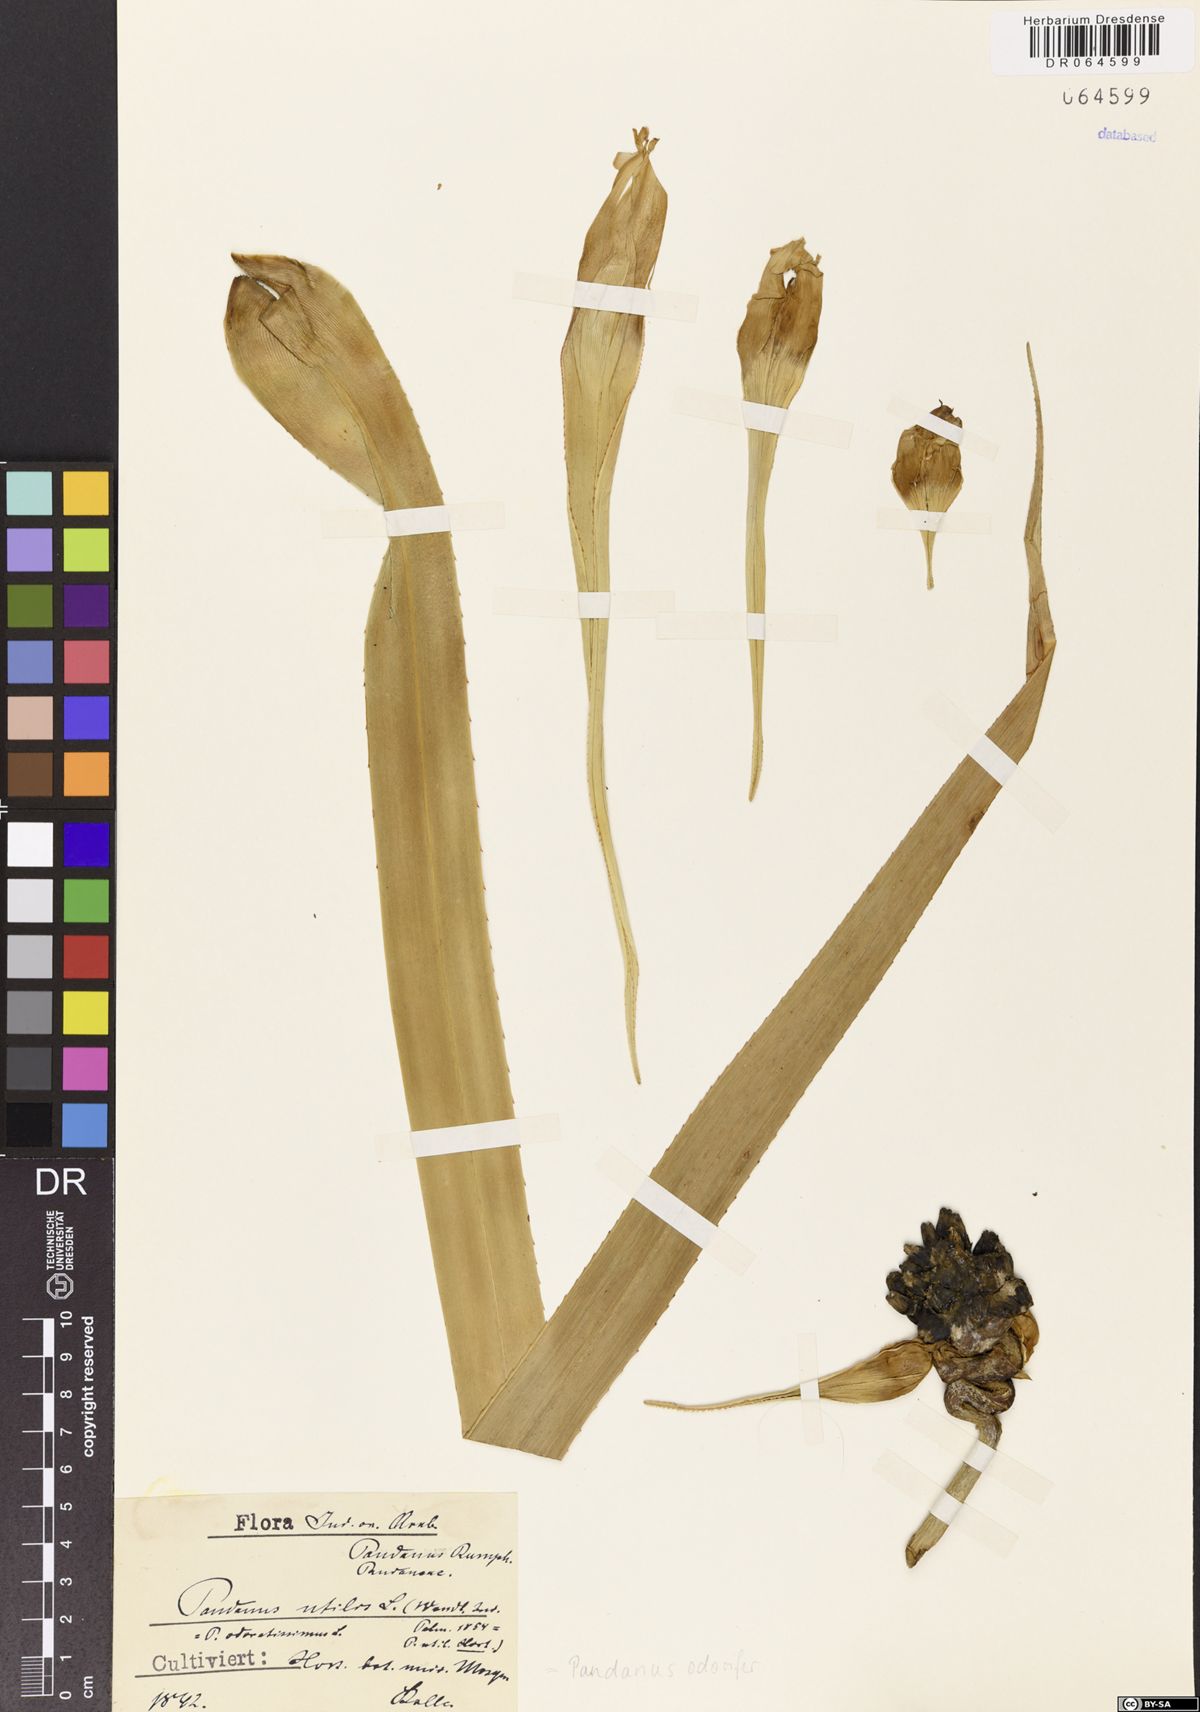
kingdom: Plantae
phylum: Tracheophyta
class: Liliopsida
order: Pandanales
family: Pandanaceae
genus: Pandanus
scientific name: Pandanus odorifer
